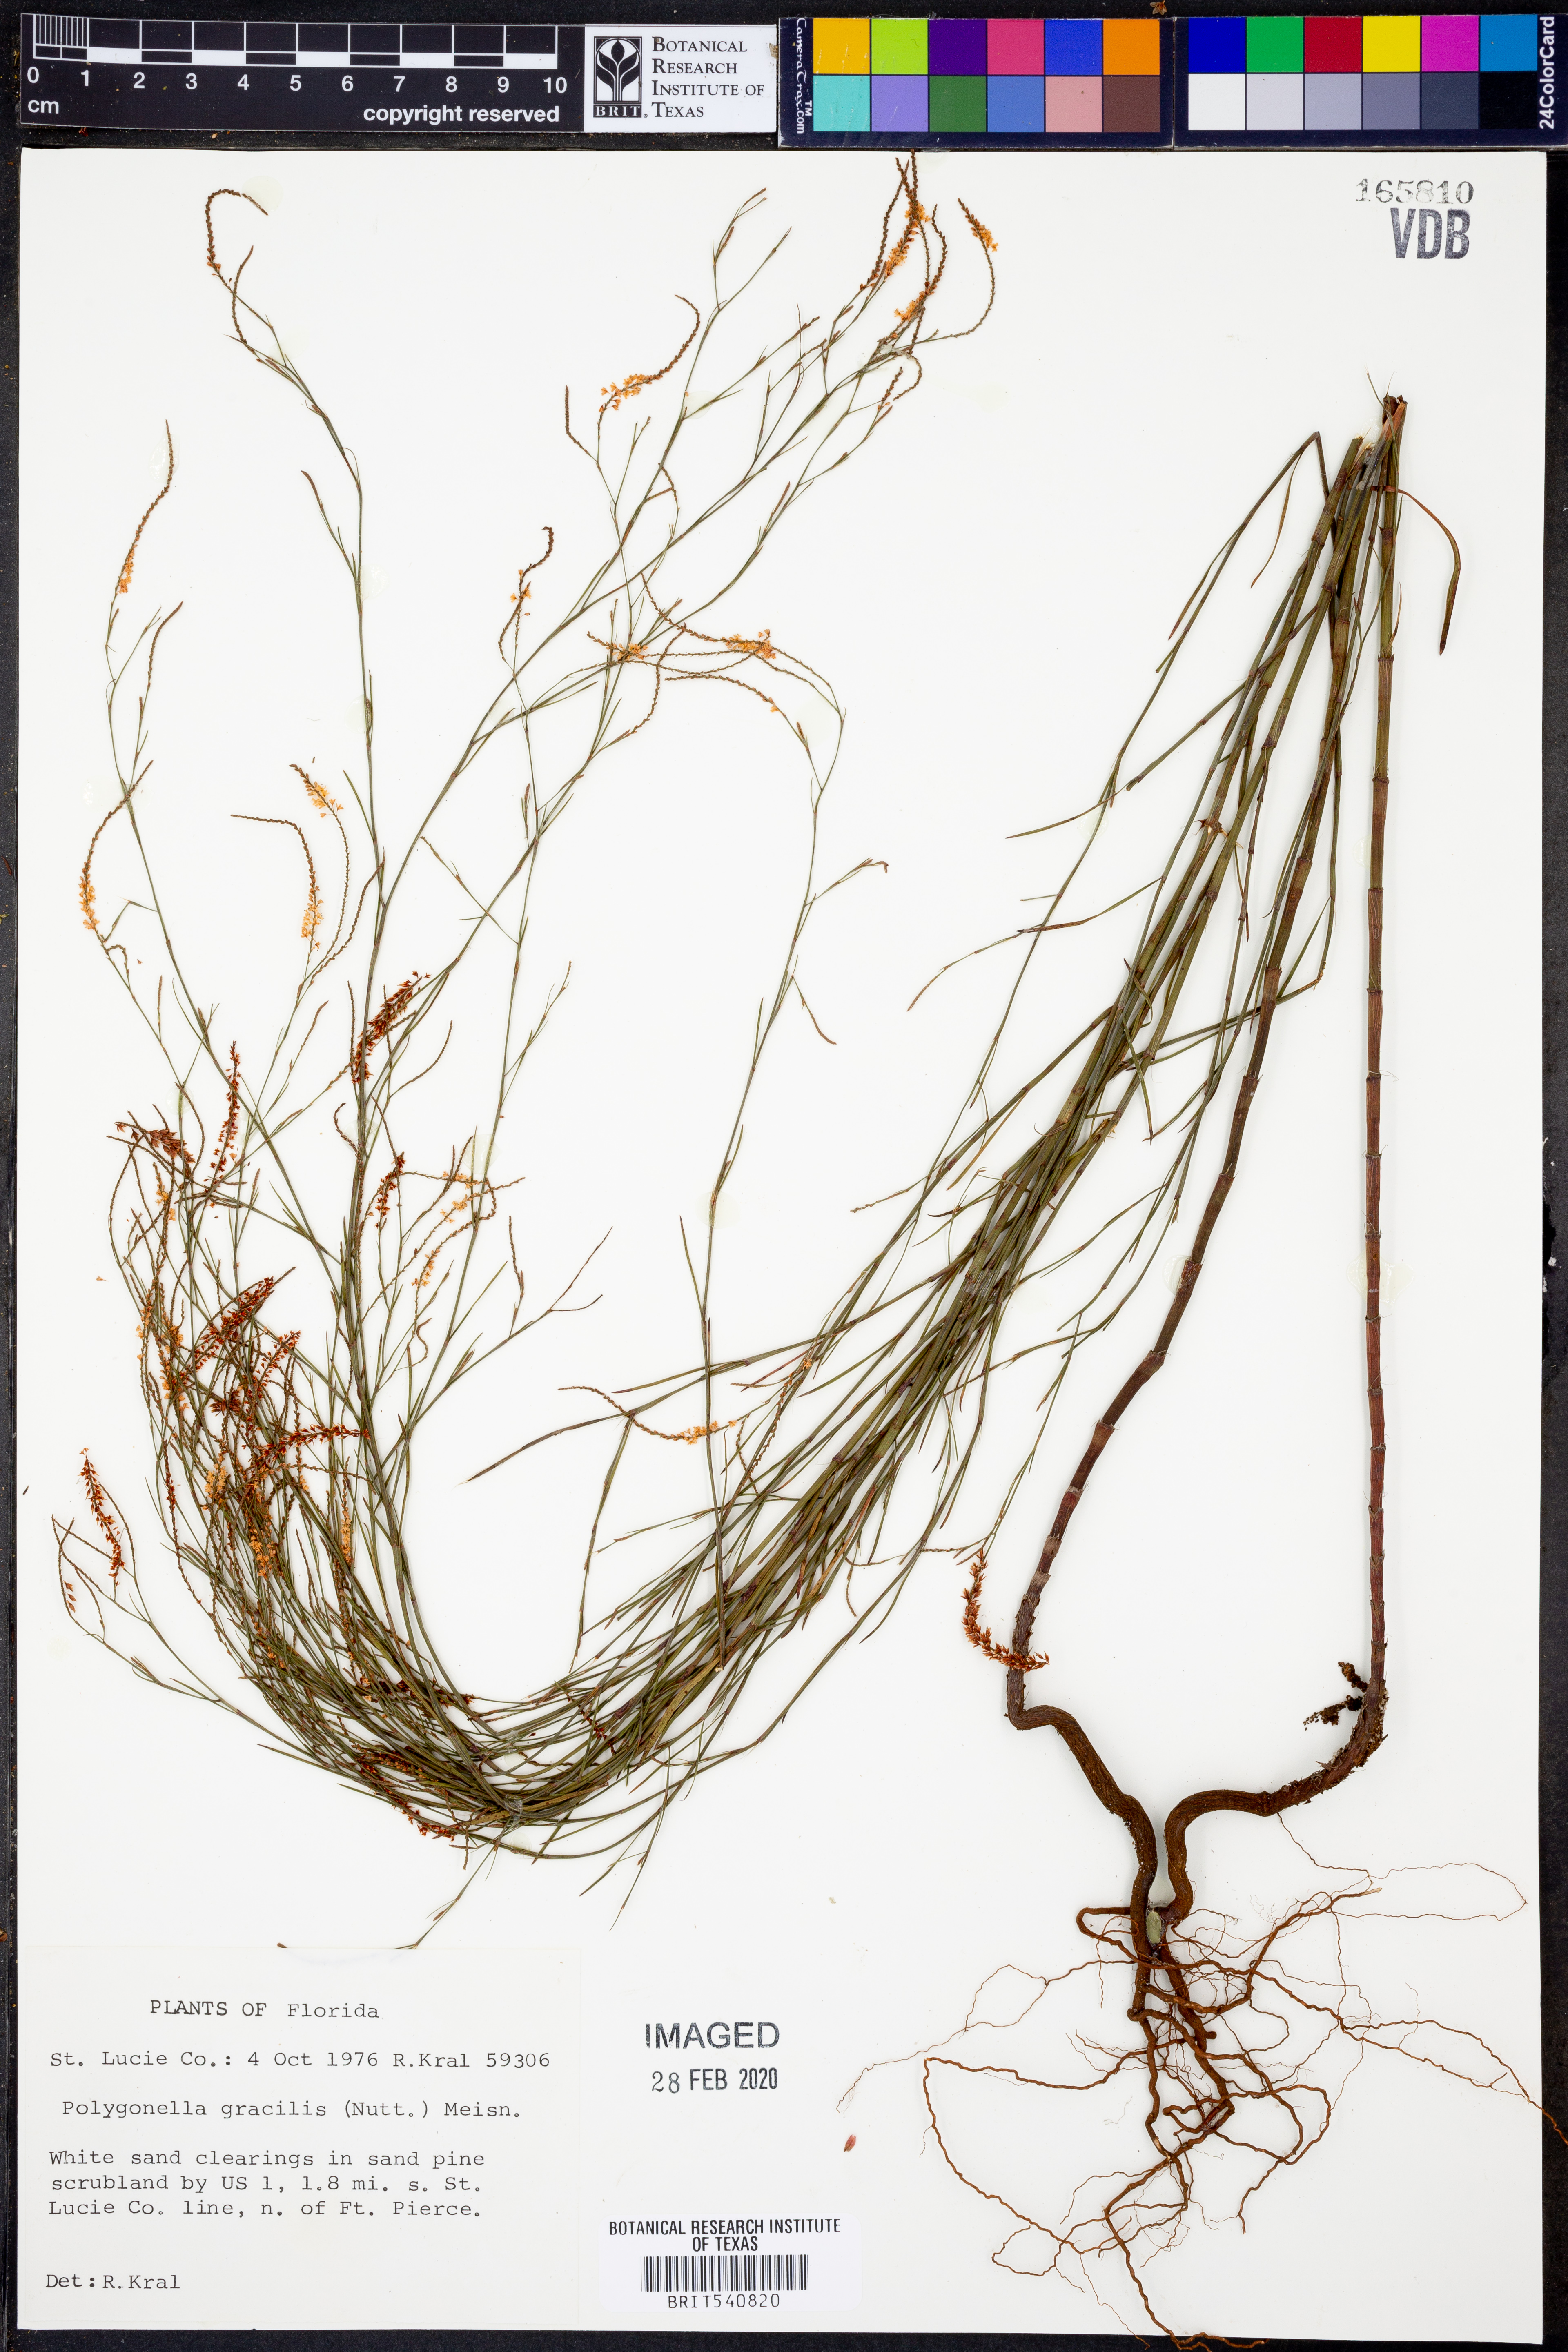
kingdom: Plantae
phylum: Tracheophyta
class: Magnoliopsida
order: Caryophyllales
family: Polygonaceae
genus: Polygonella
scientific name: Polygonella gracilis
